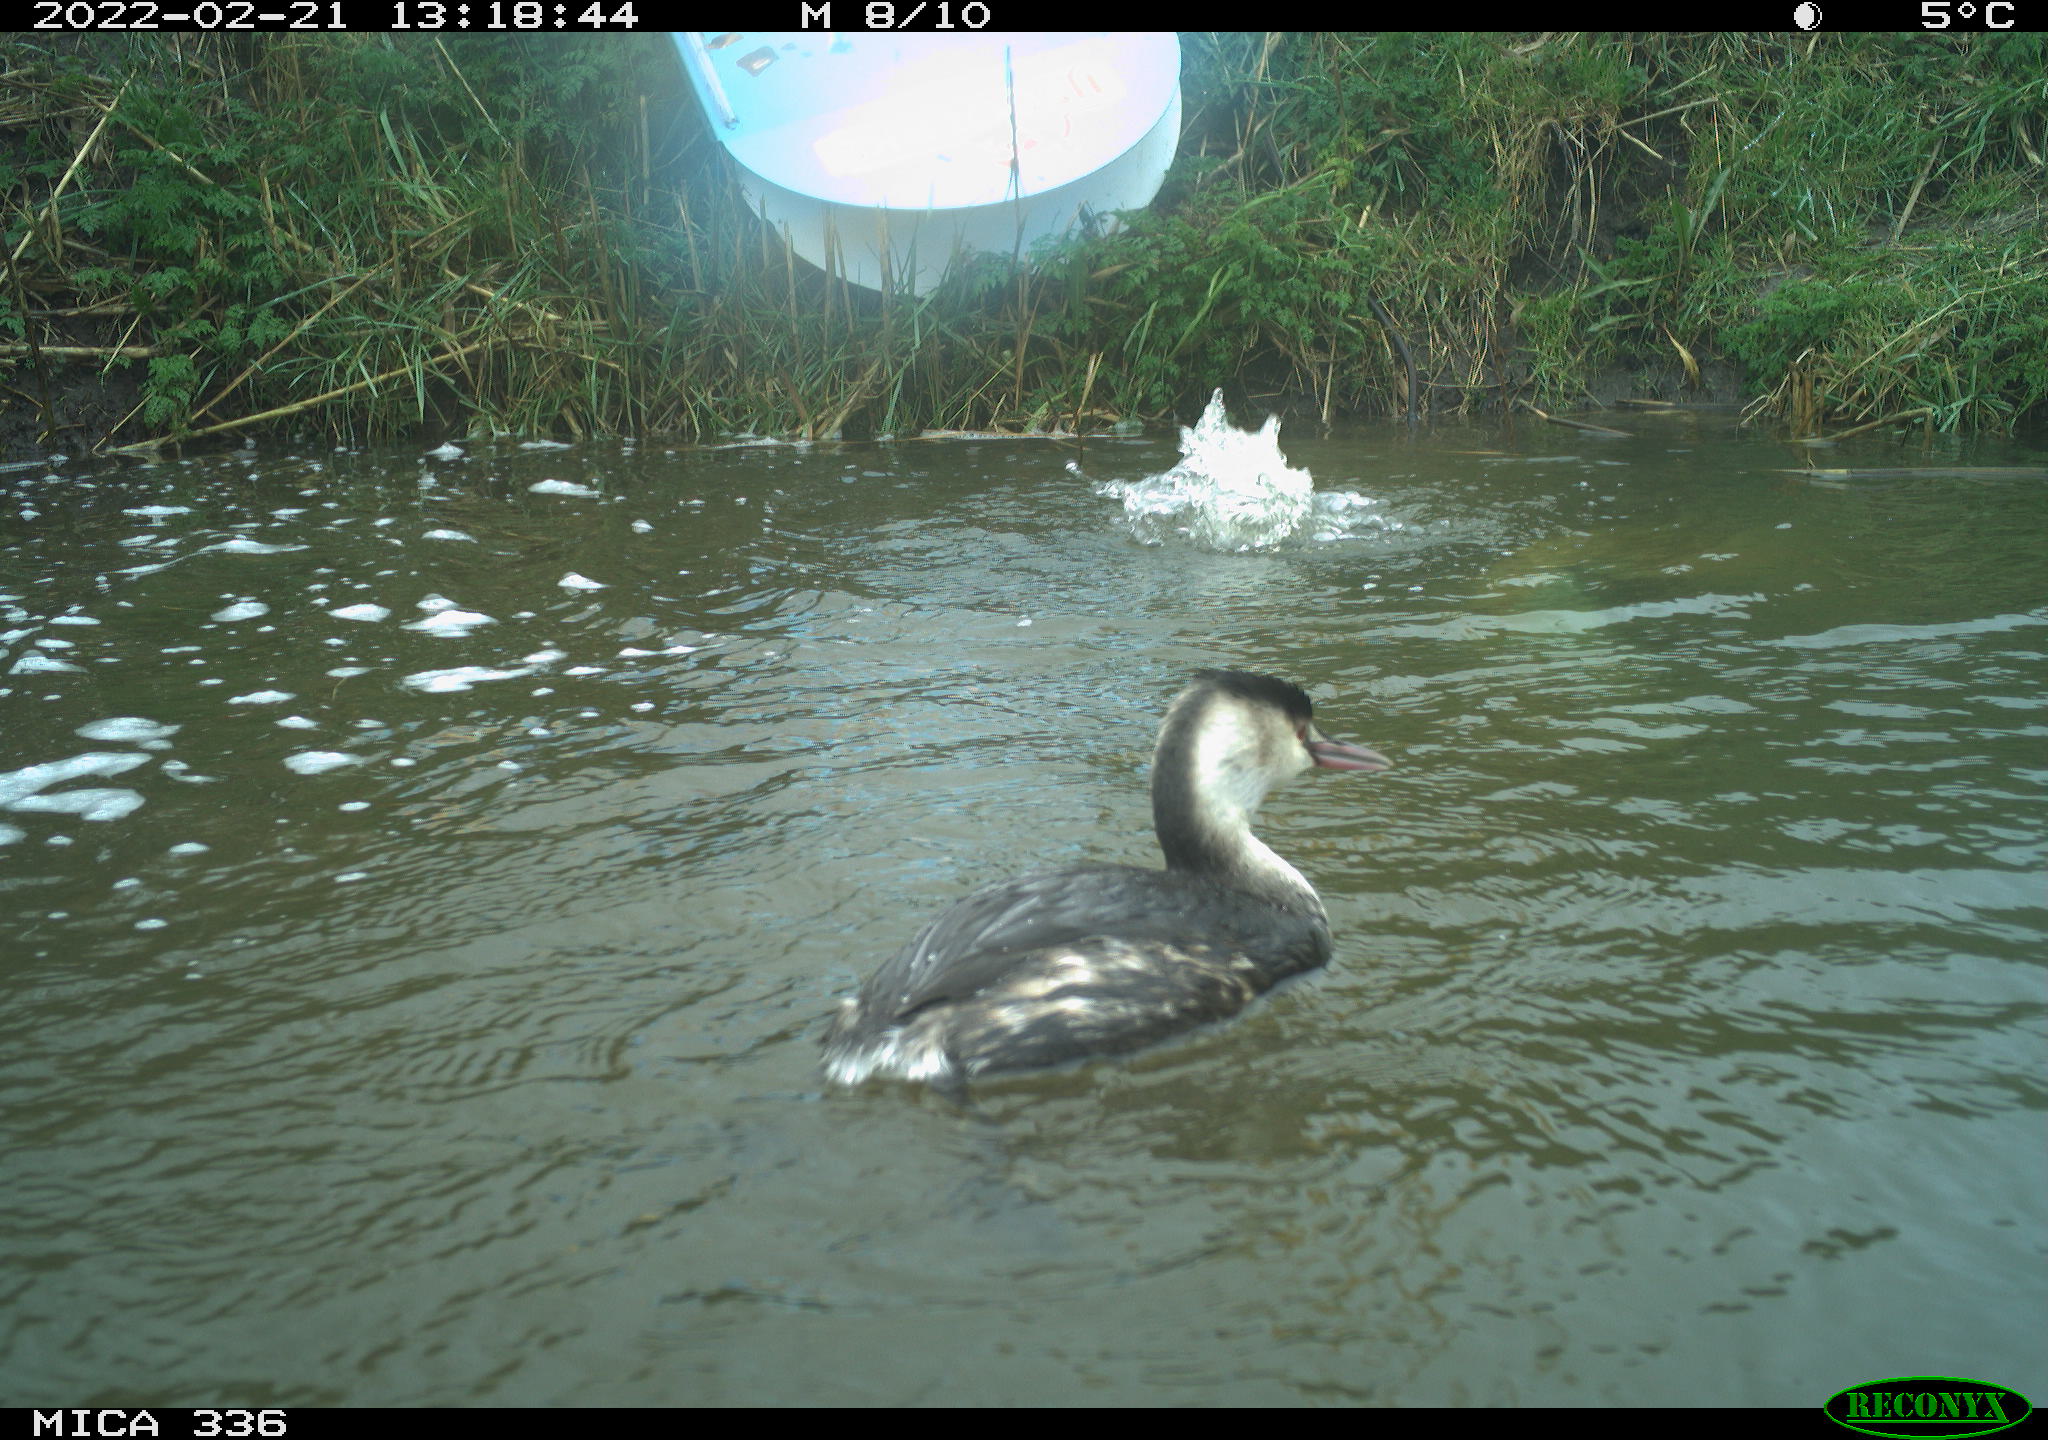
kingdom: Animalia
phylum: Chordata
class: Aves
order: Podicipediformes
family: Podicipedidae
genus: Podiceps
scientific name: Podiceps cristatus
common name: Great crested grebe
